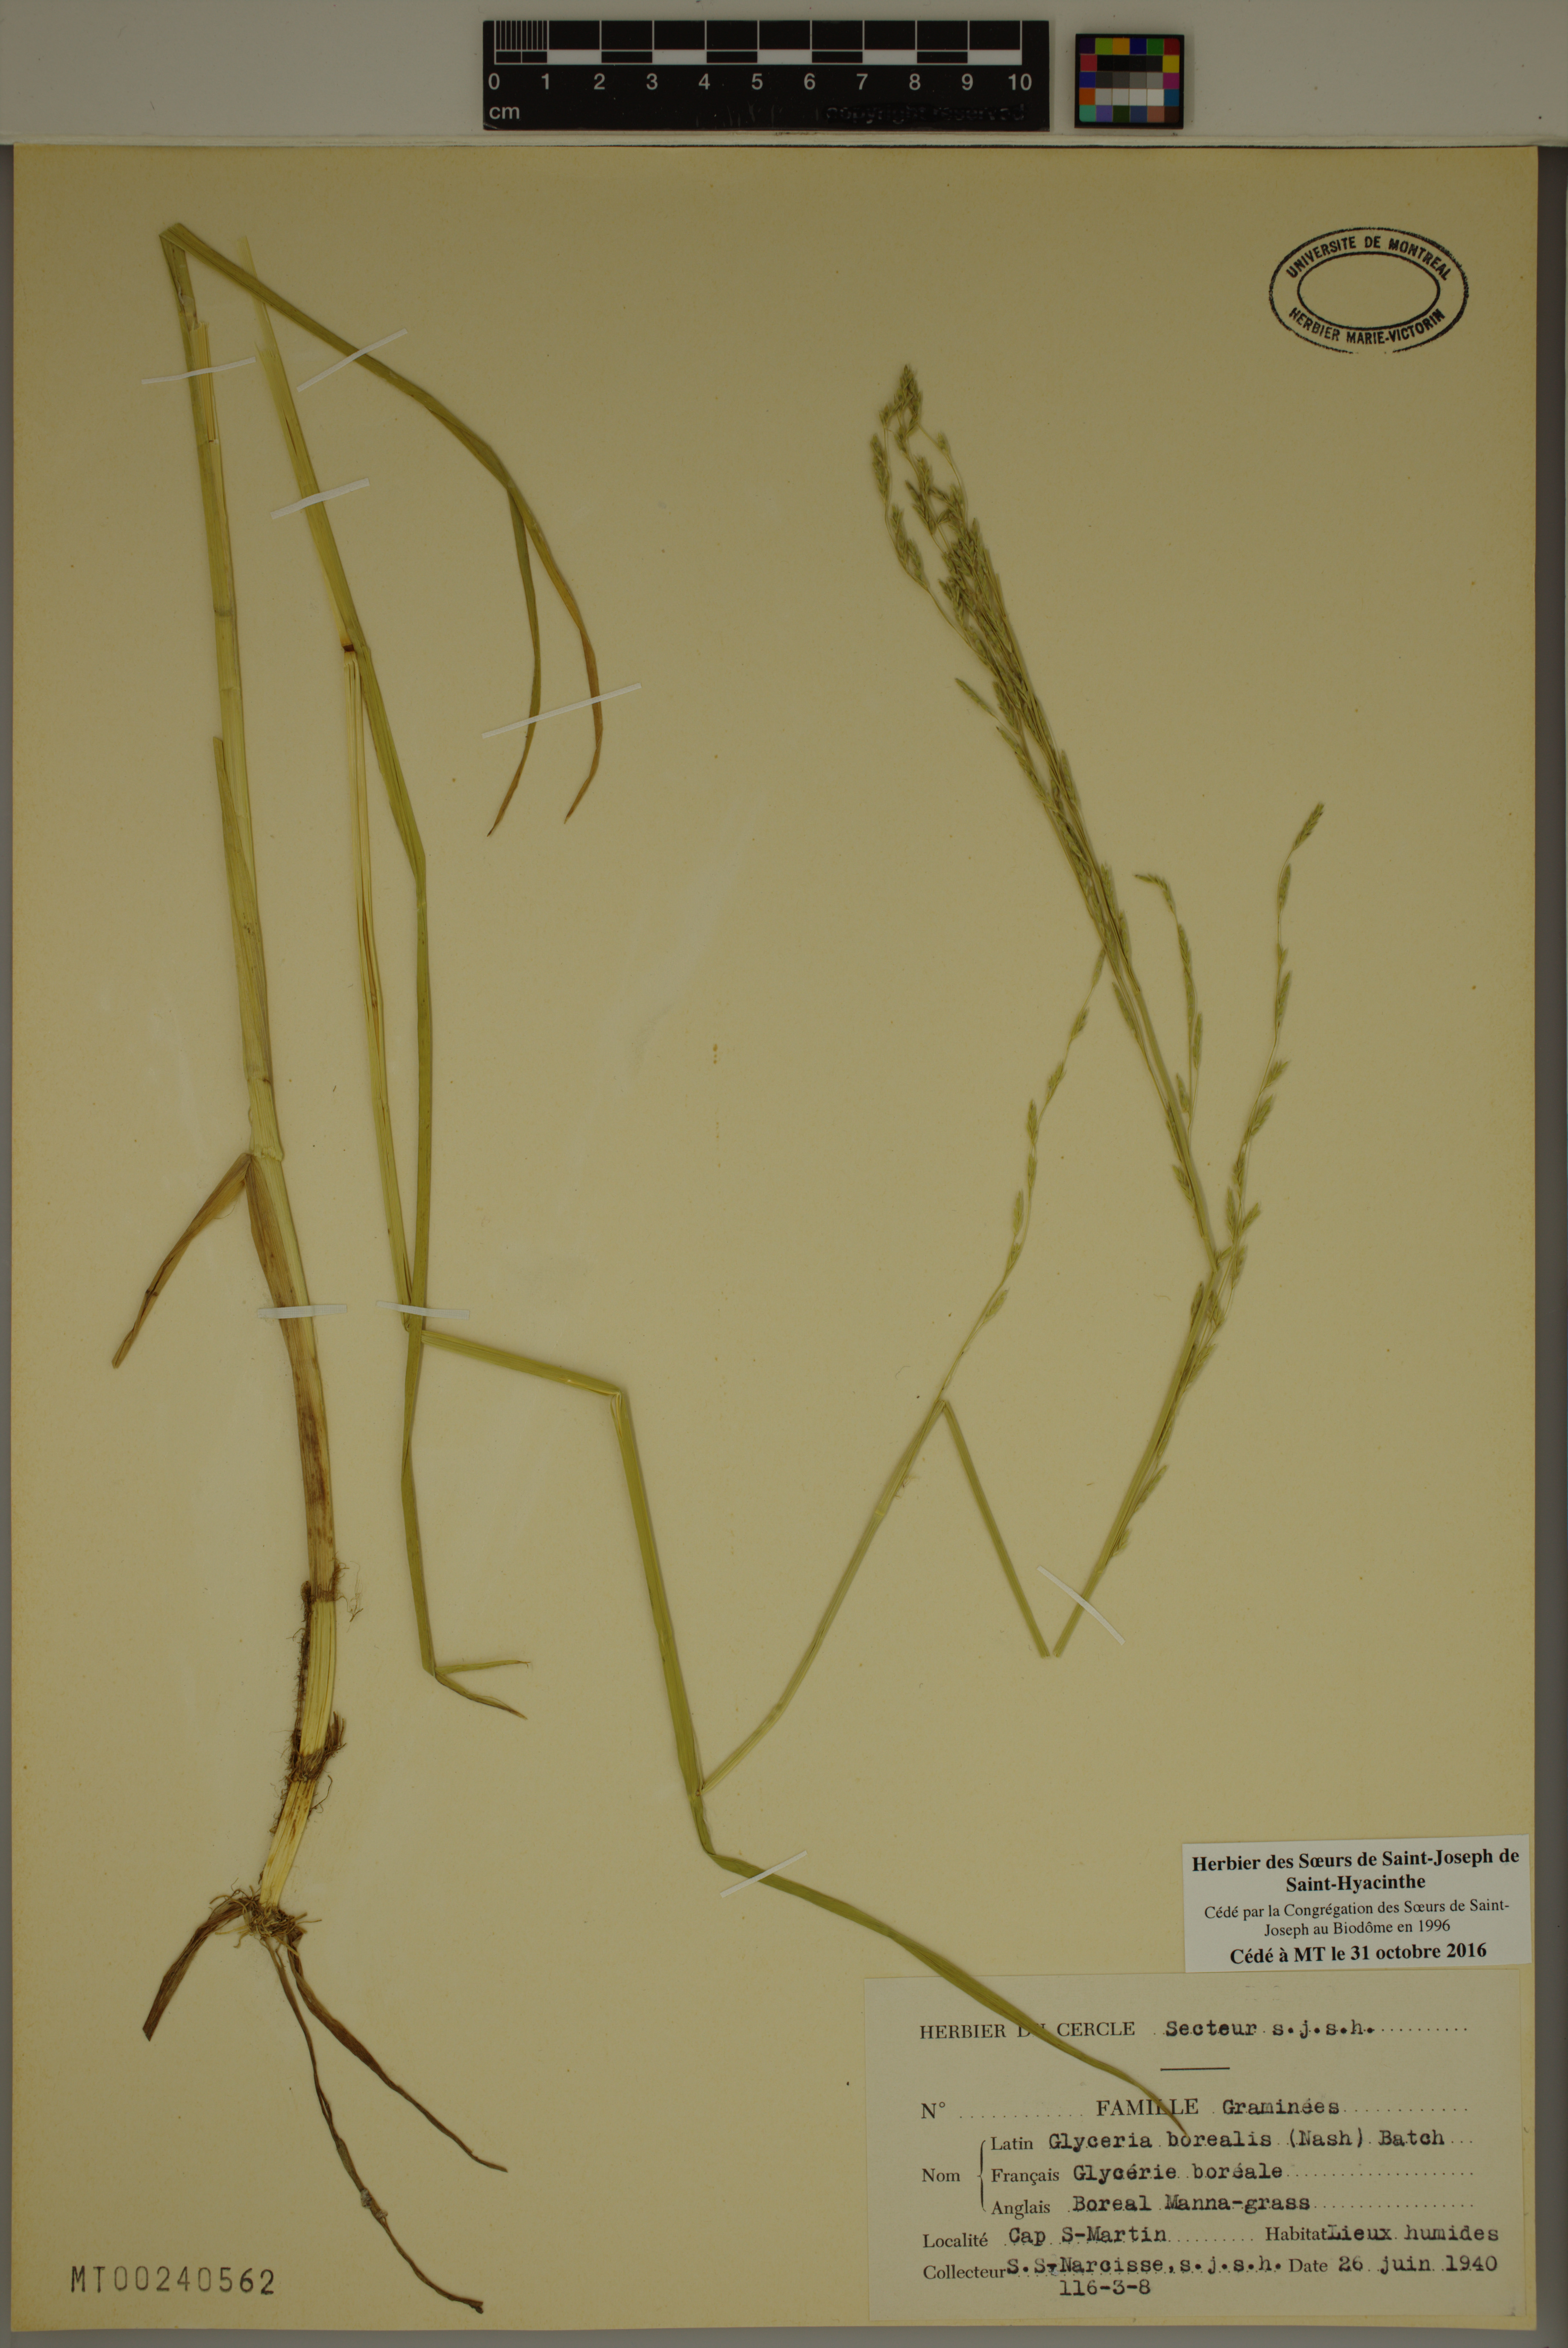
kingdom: Plantae
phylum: Tracheophyta
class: Liliopsida
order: Poales
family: Poaceae
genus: Glyceria
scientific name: Glyceria borealis
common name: Boreal glyceria
